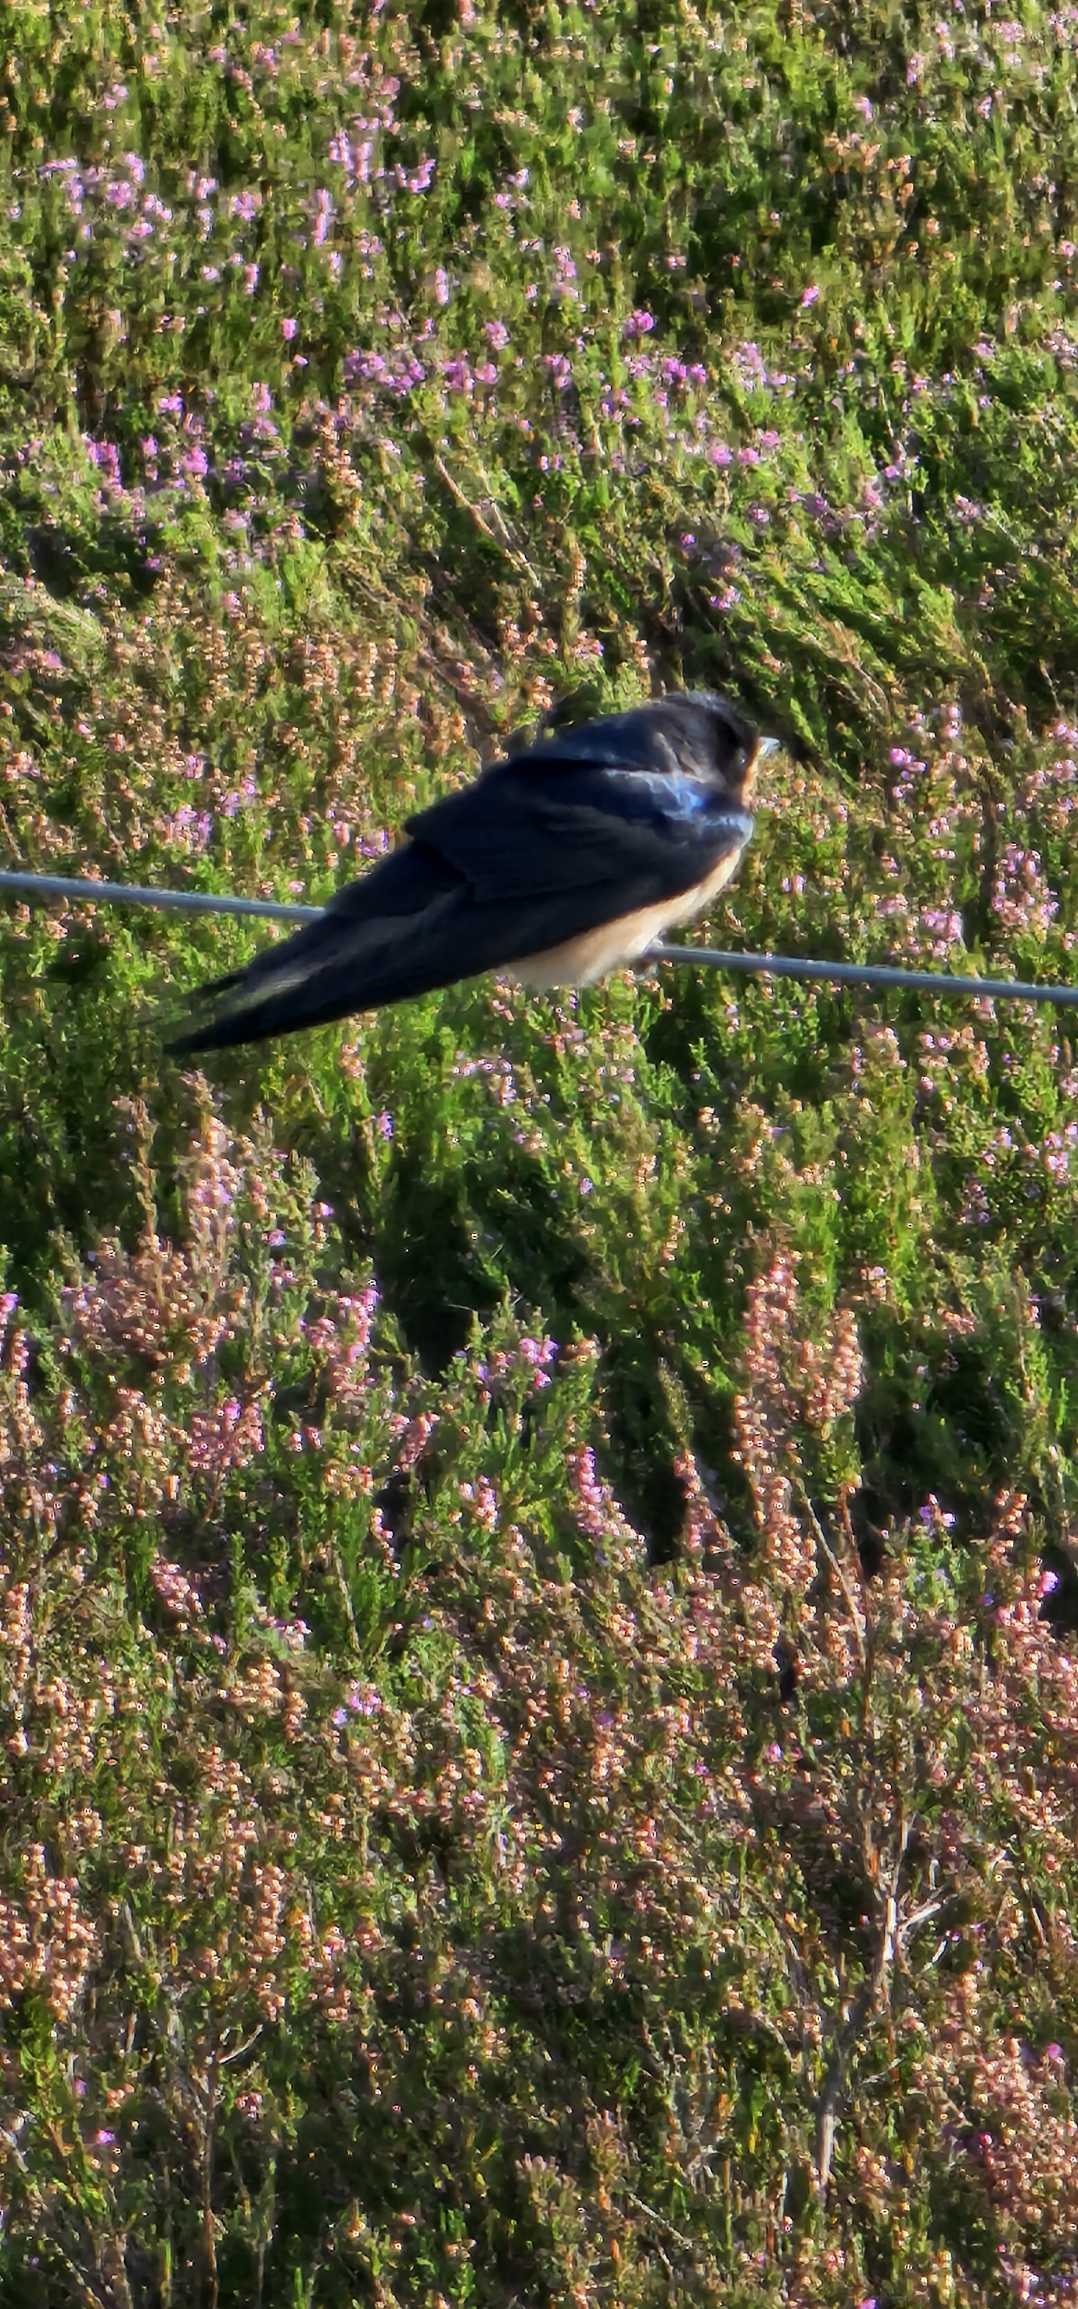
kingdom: Animalia
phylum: Chordata
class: Aves
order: Passeriformes
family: Hirundinidae
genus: Hirundo
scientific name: Hirundo rustica
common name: Landsvale
